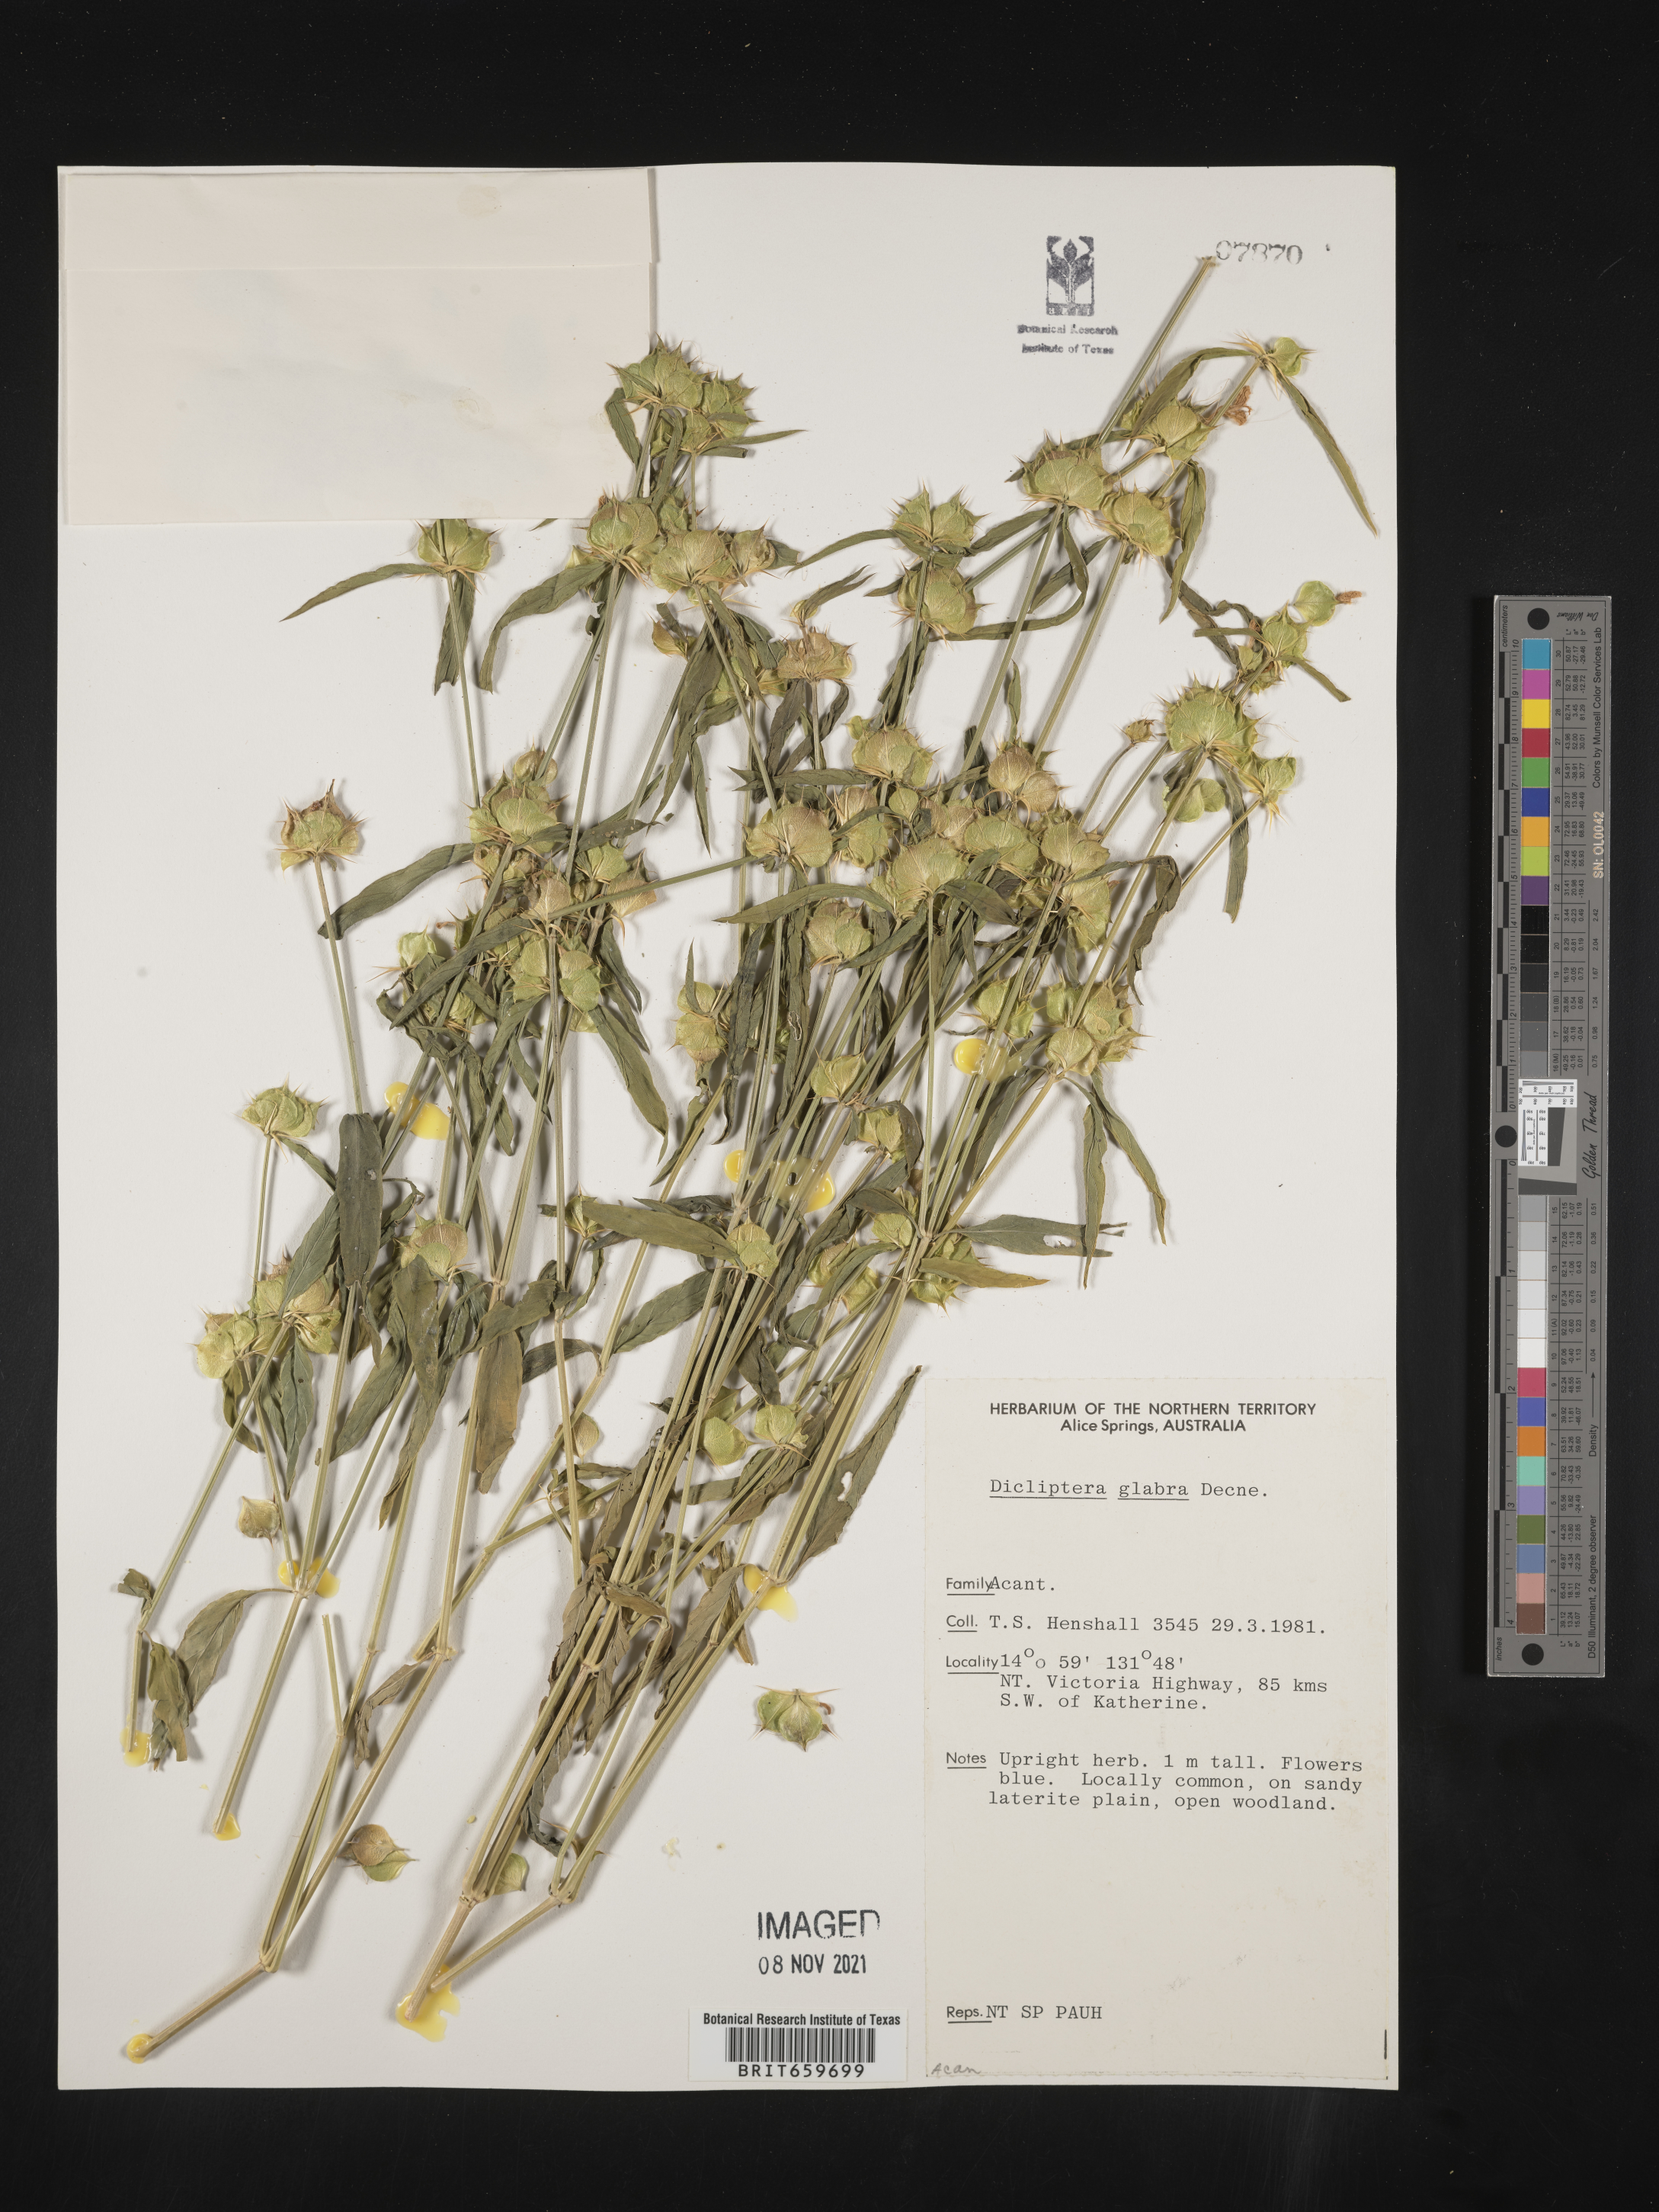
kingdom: Plantae
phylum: Tracheophyta
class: Magnoliopsida
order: Lamiales
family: Acanthaceae
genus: Dicliptera
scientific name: Dicliptera
